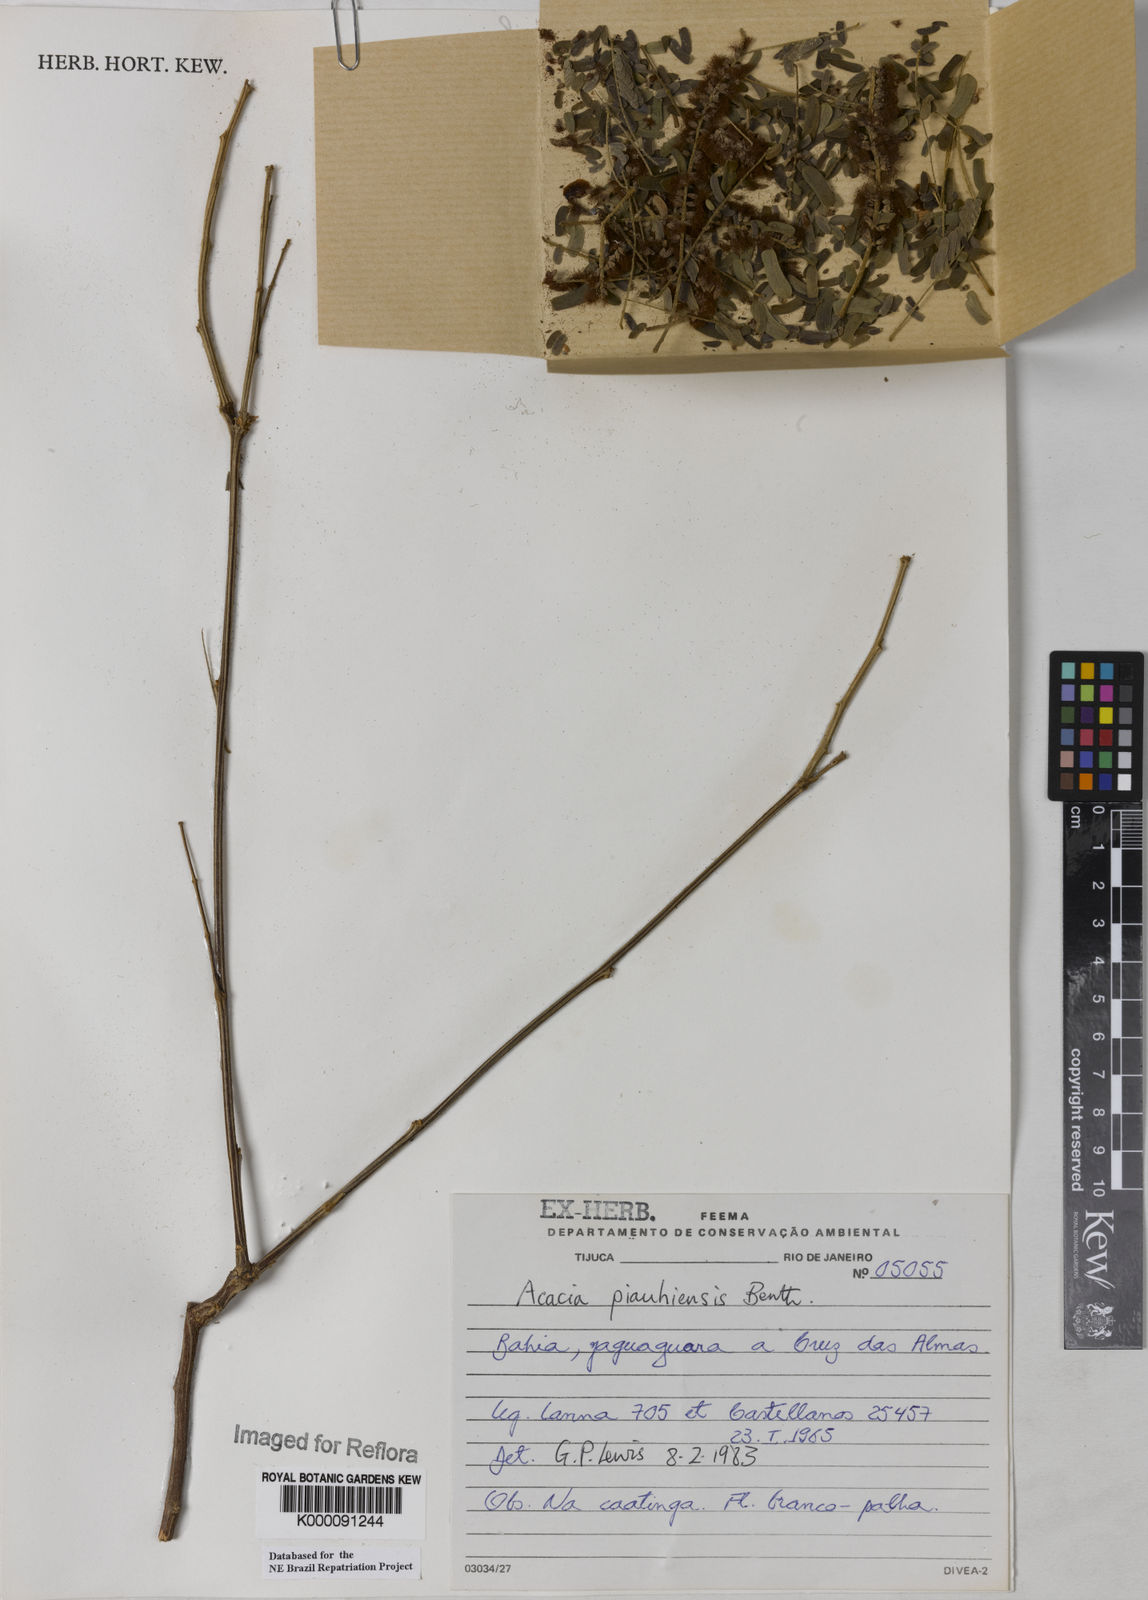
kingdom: Plantae
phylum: Tracheophyta
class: Magnoliopsida
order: Fabales
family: Fabaceae
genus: Senegalia
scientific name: Senegalia piauhiensis
